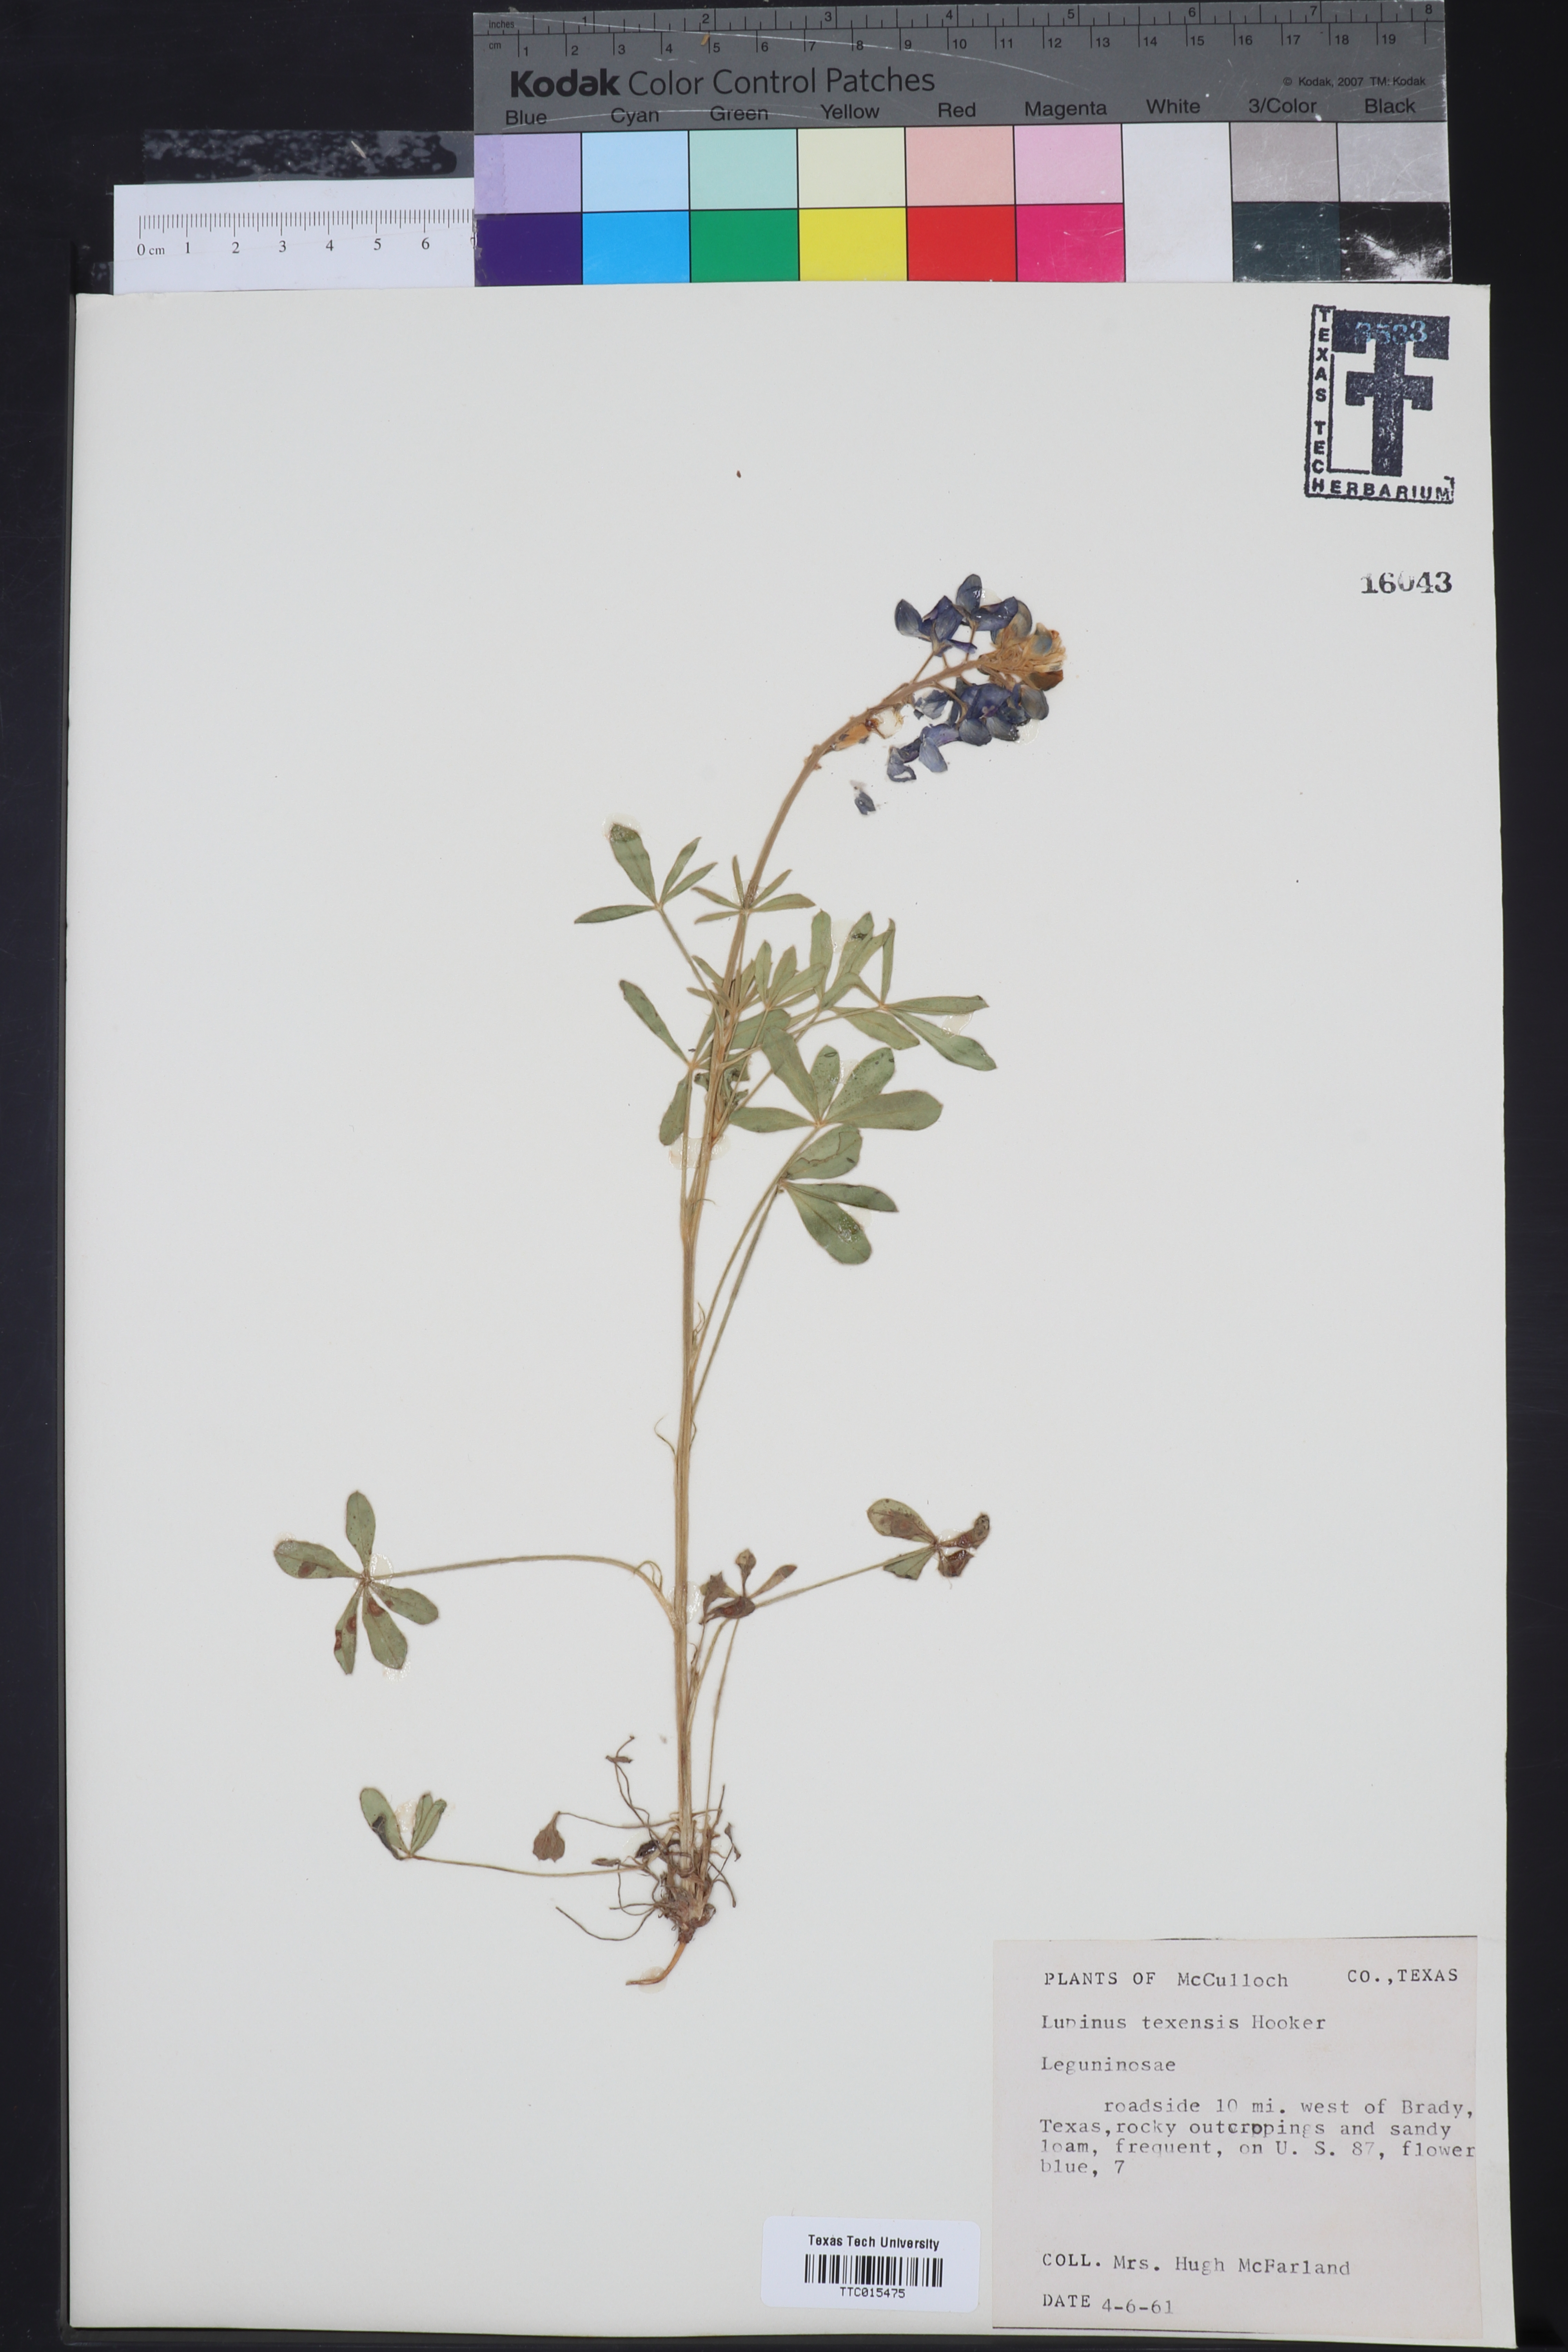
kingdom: Plantae
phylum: Tracheophyta
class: Magnoliopsida
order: Fabales
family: Fabaceae
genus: Lupinus
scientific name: Lupinus texensis
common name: Texas bluebonnet
